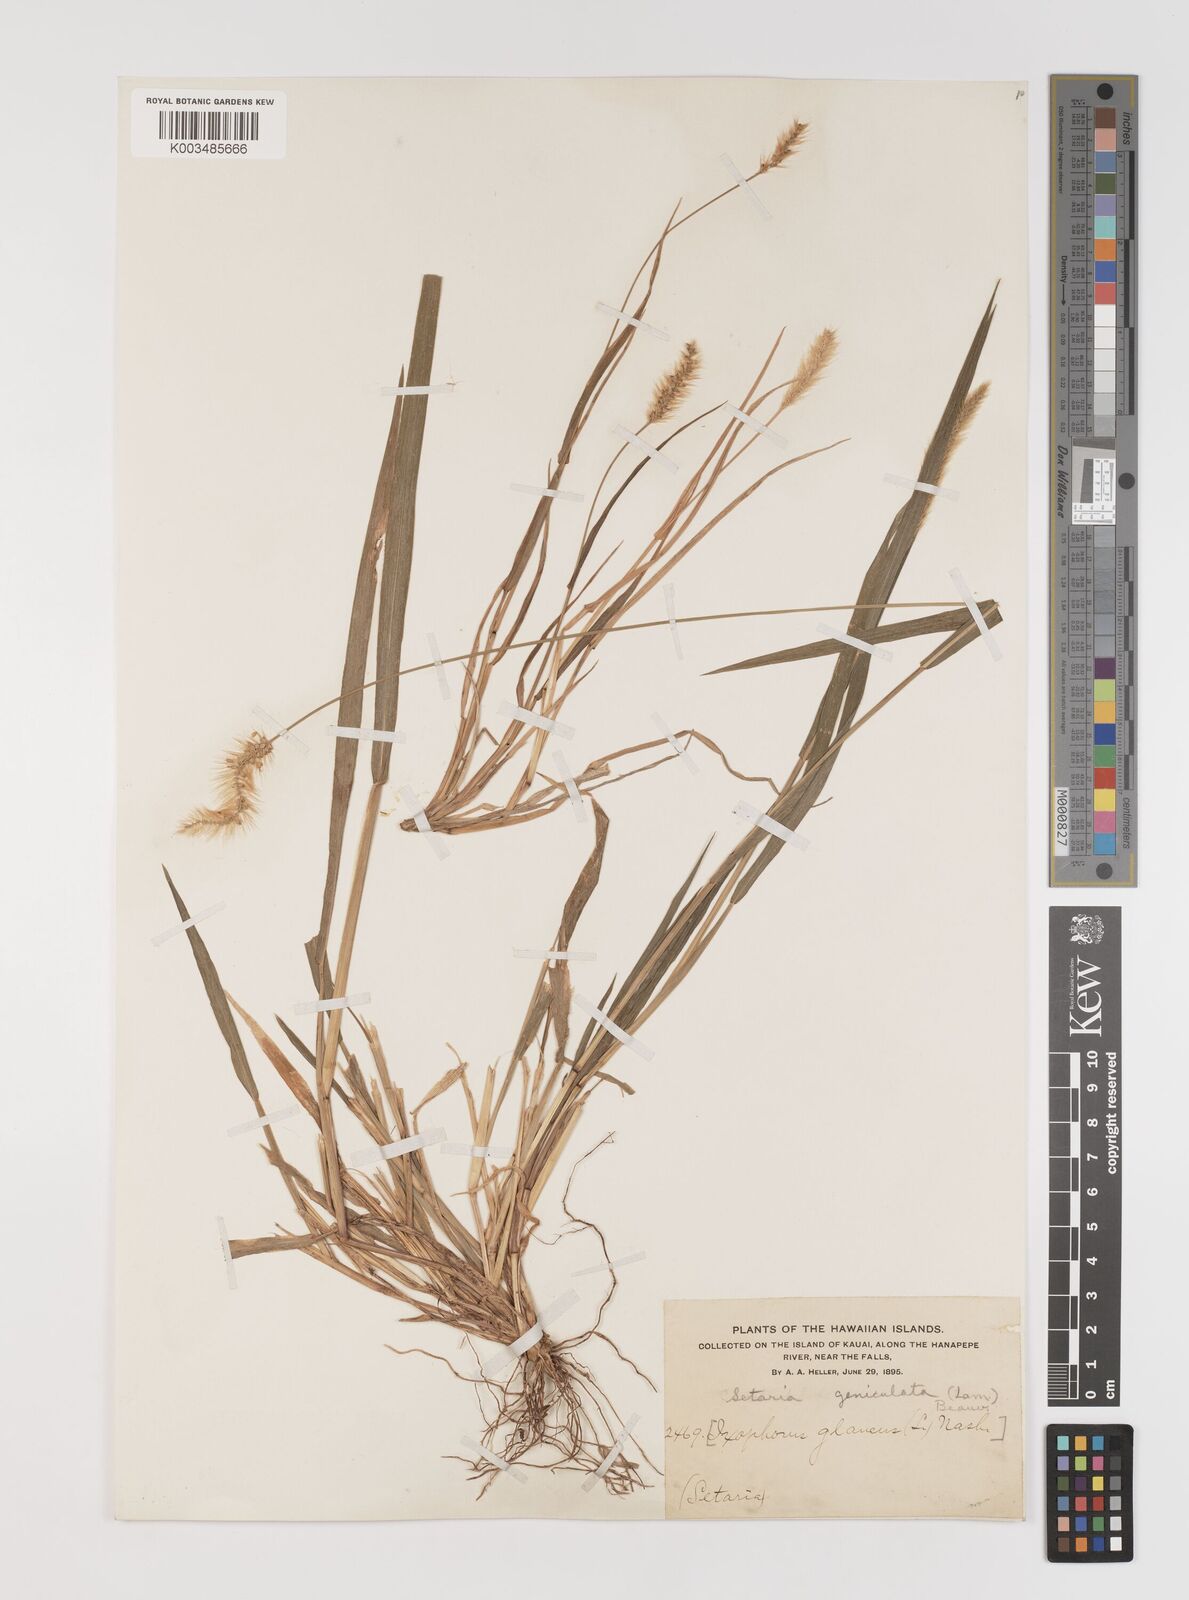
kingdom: Plantae
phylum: Tracheophyta
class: Liliopsida
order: Poales
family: Poaceae
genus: Setaria
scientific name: Setaria parviflora
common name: Knotroot bristle-grass
